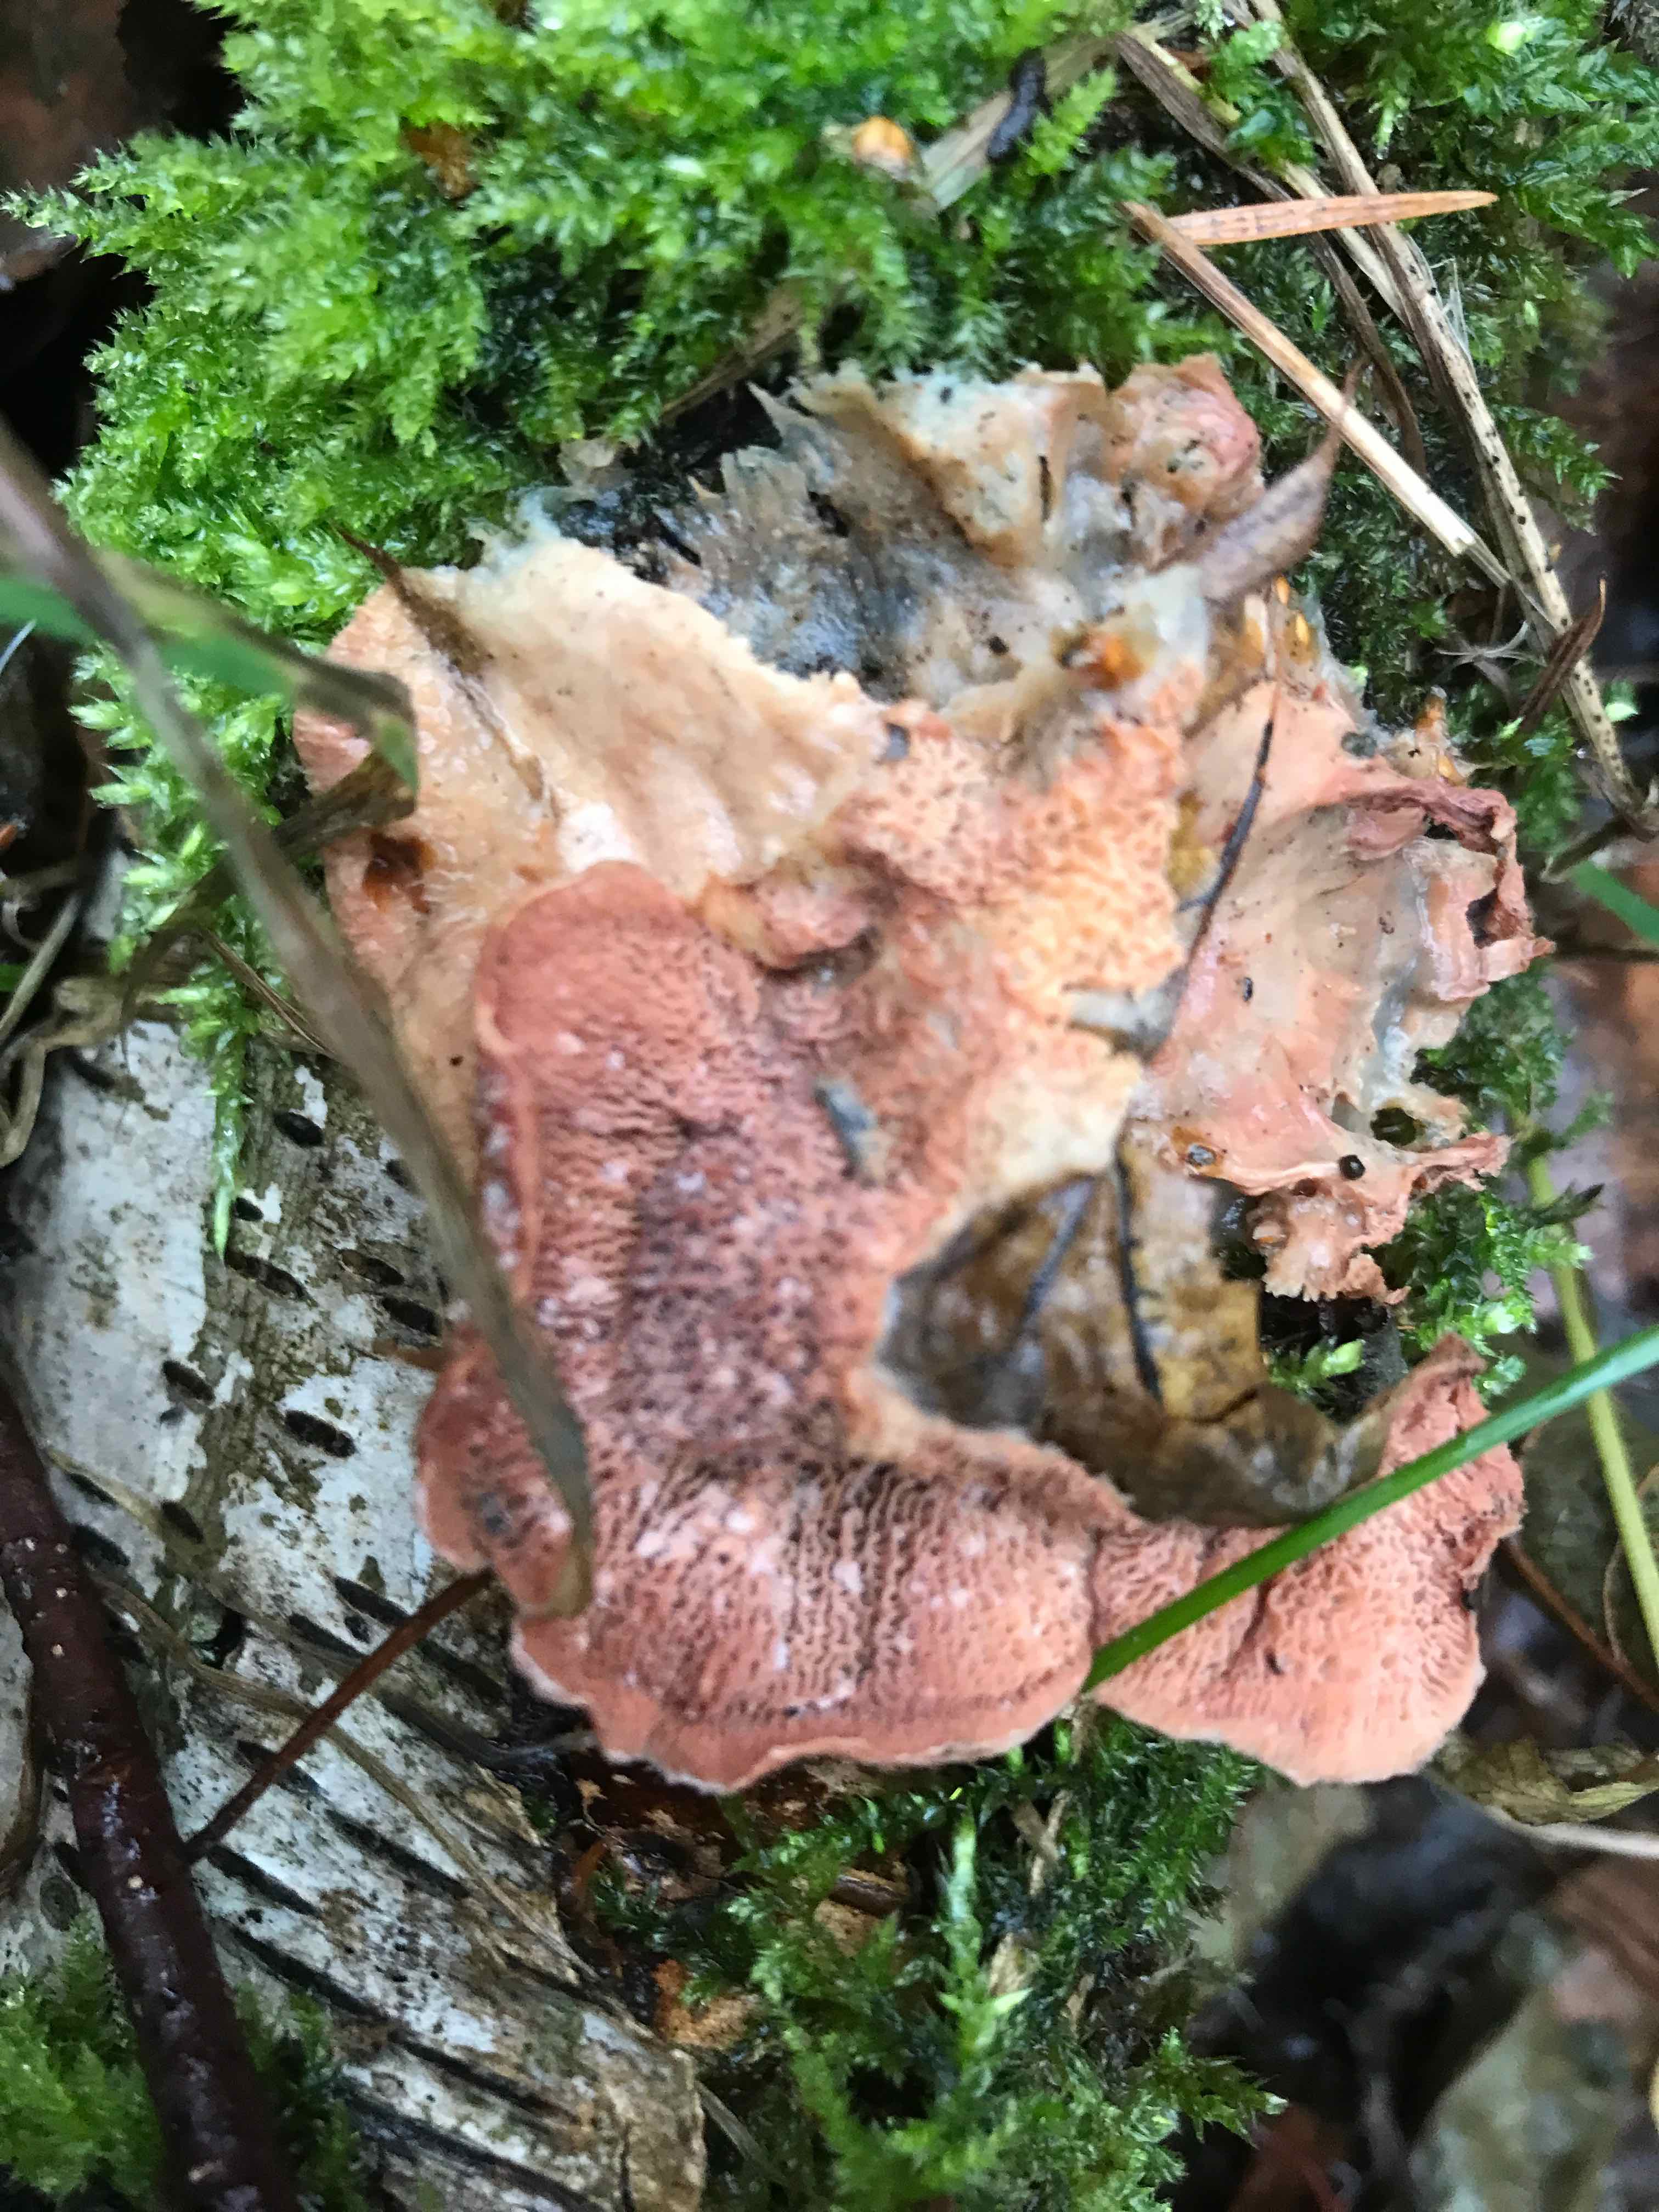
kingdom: Fungi
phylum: Basidiomycota
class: Agaricomycetes
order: Polyporales
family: Meruliaceae
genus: Phlebia
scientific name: Phlebia tremellosa
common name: bævrende åresvamp
